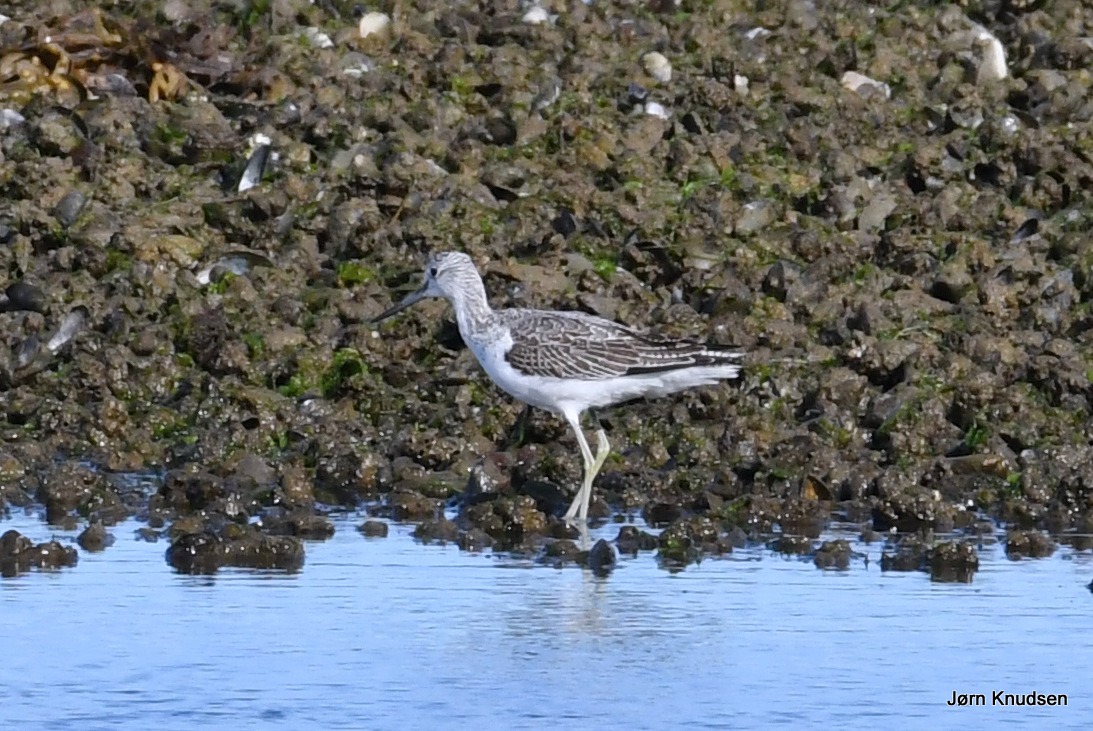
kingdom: Animalia
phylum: Chordata
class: Aves
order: Charadriiformes
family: Scolopacidae
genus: Tringa
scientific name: Tringa nebularia
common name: Hvidklire
